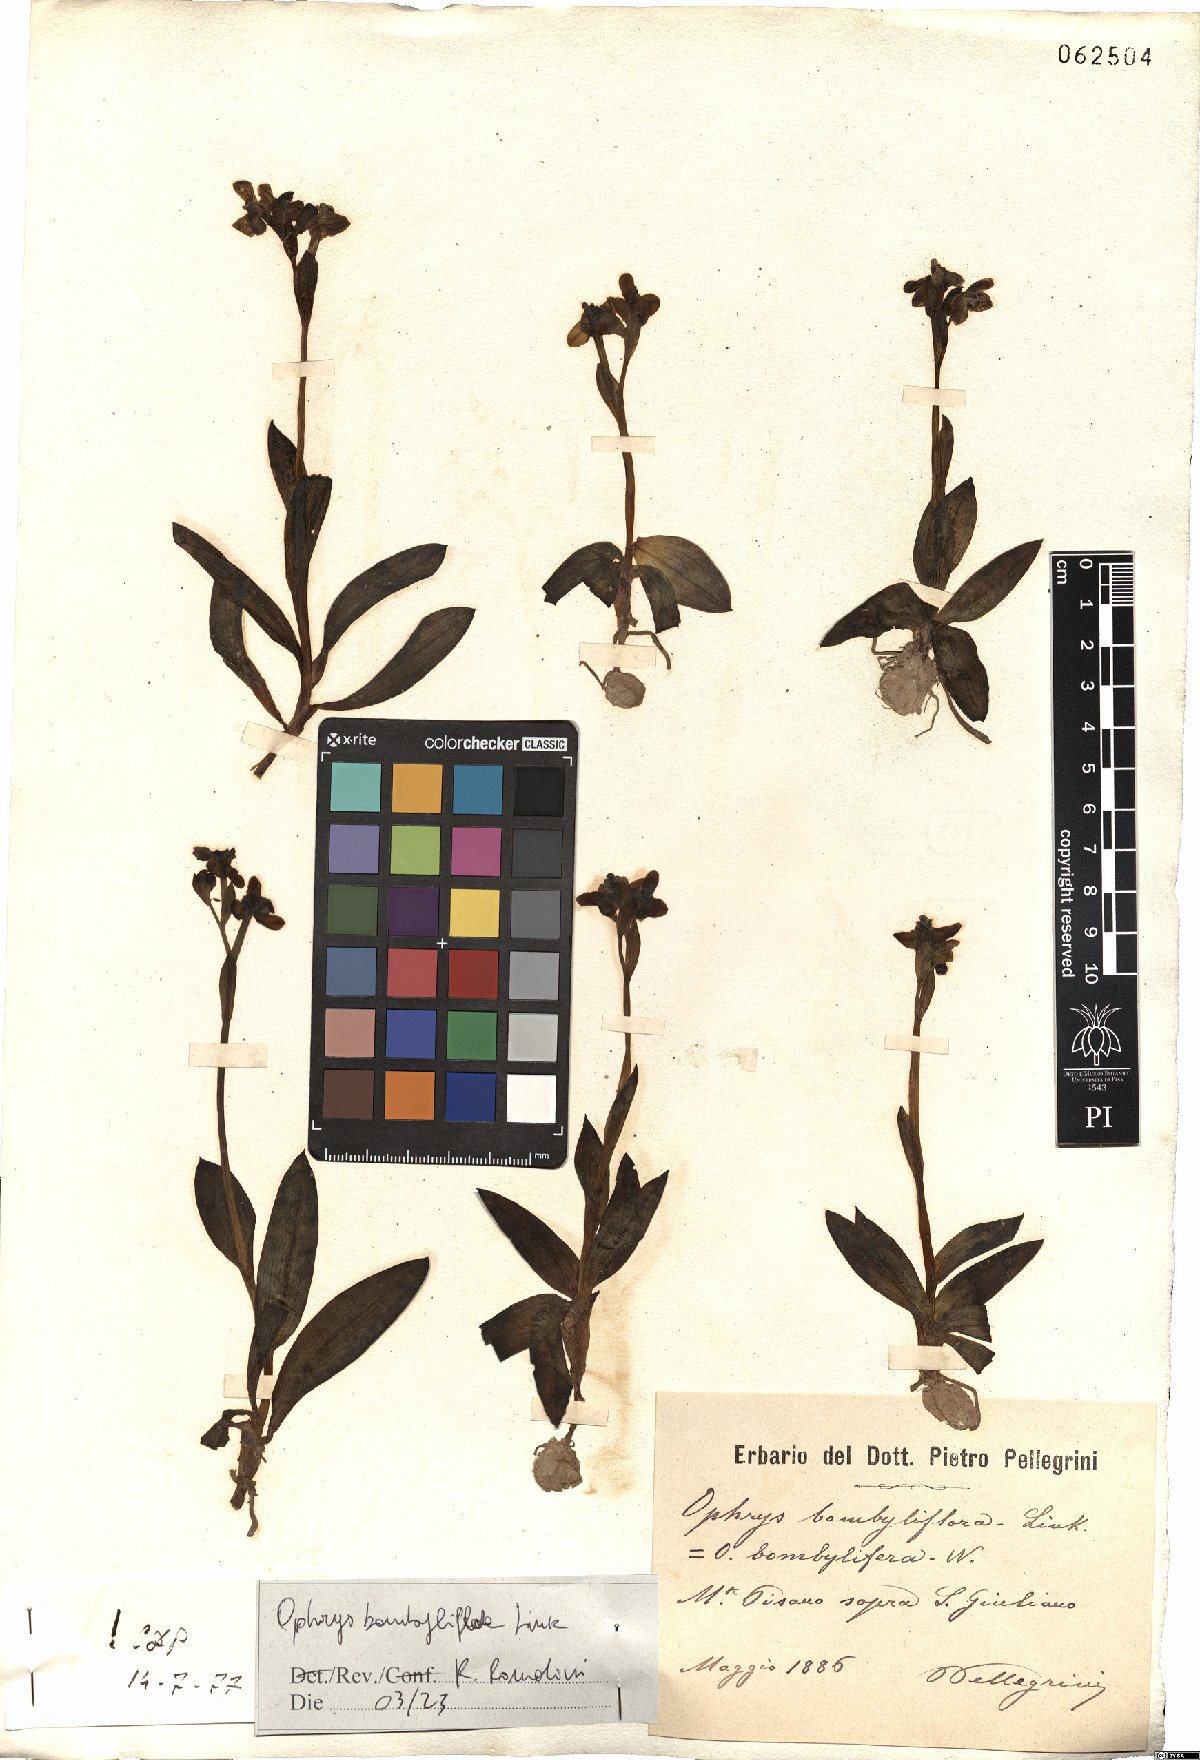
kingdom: Plantae
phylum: Tracheophyta
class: Liliopsida
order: Asparagales
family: Orchidaceae
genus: Ophrys
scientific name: Ophrys bombyliflora
